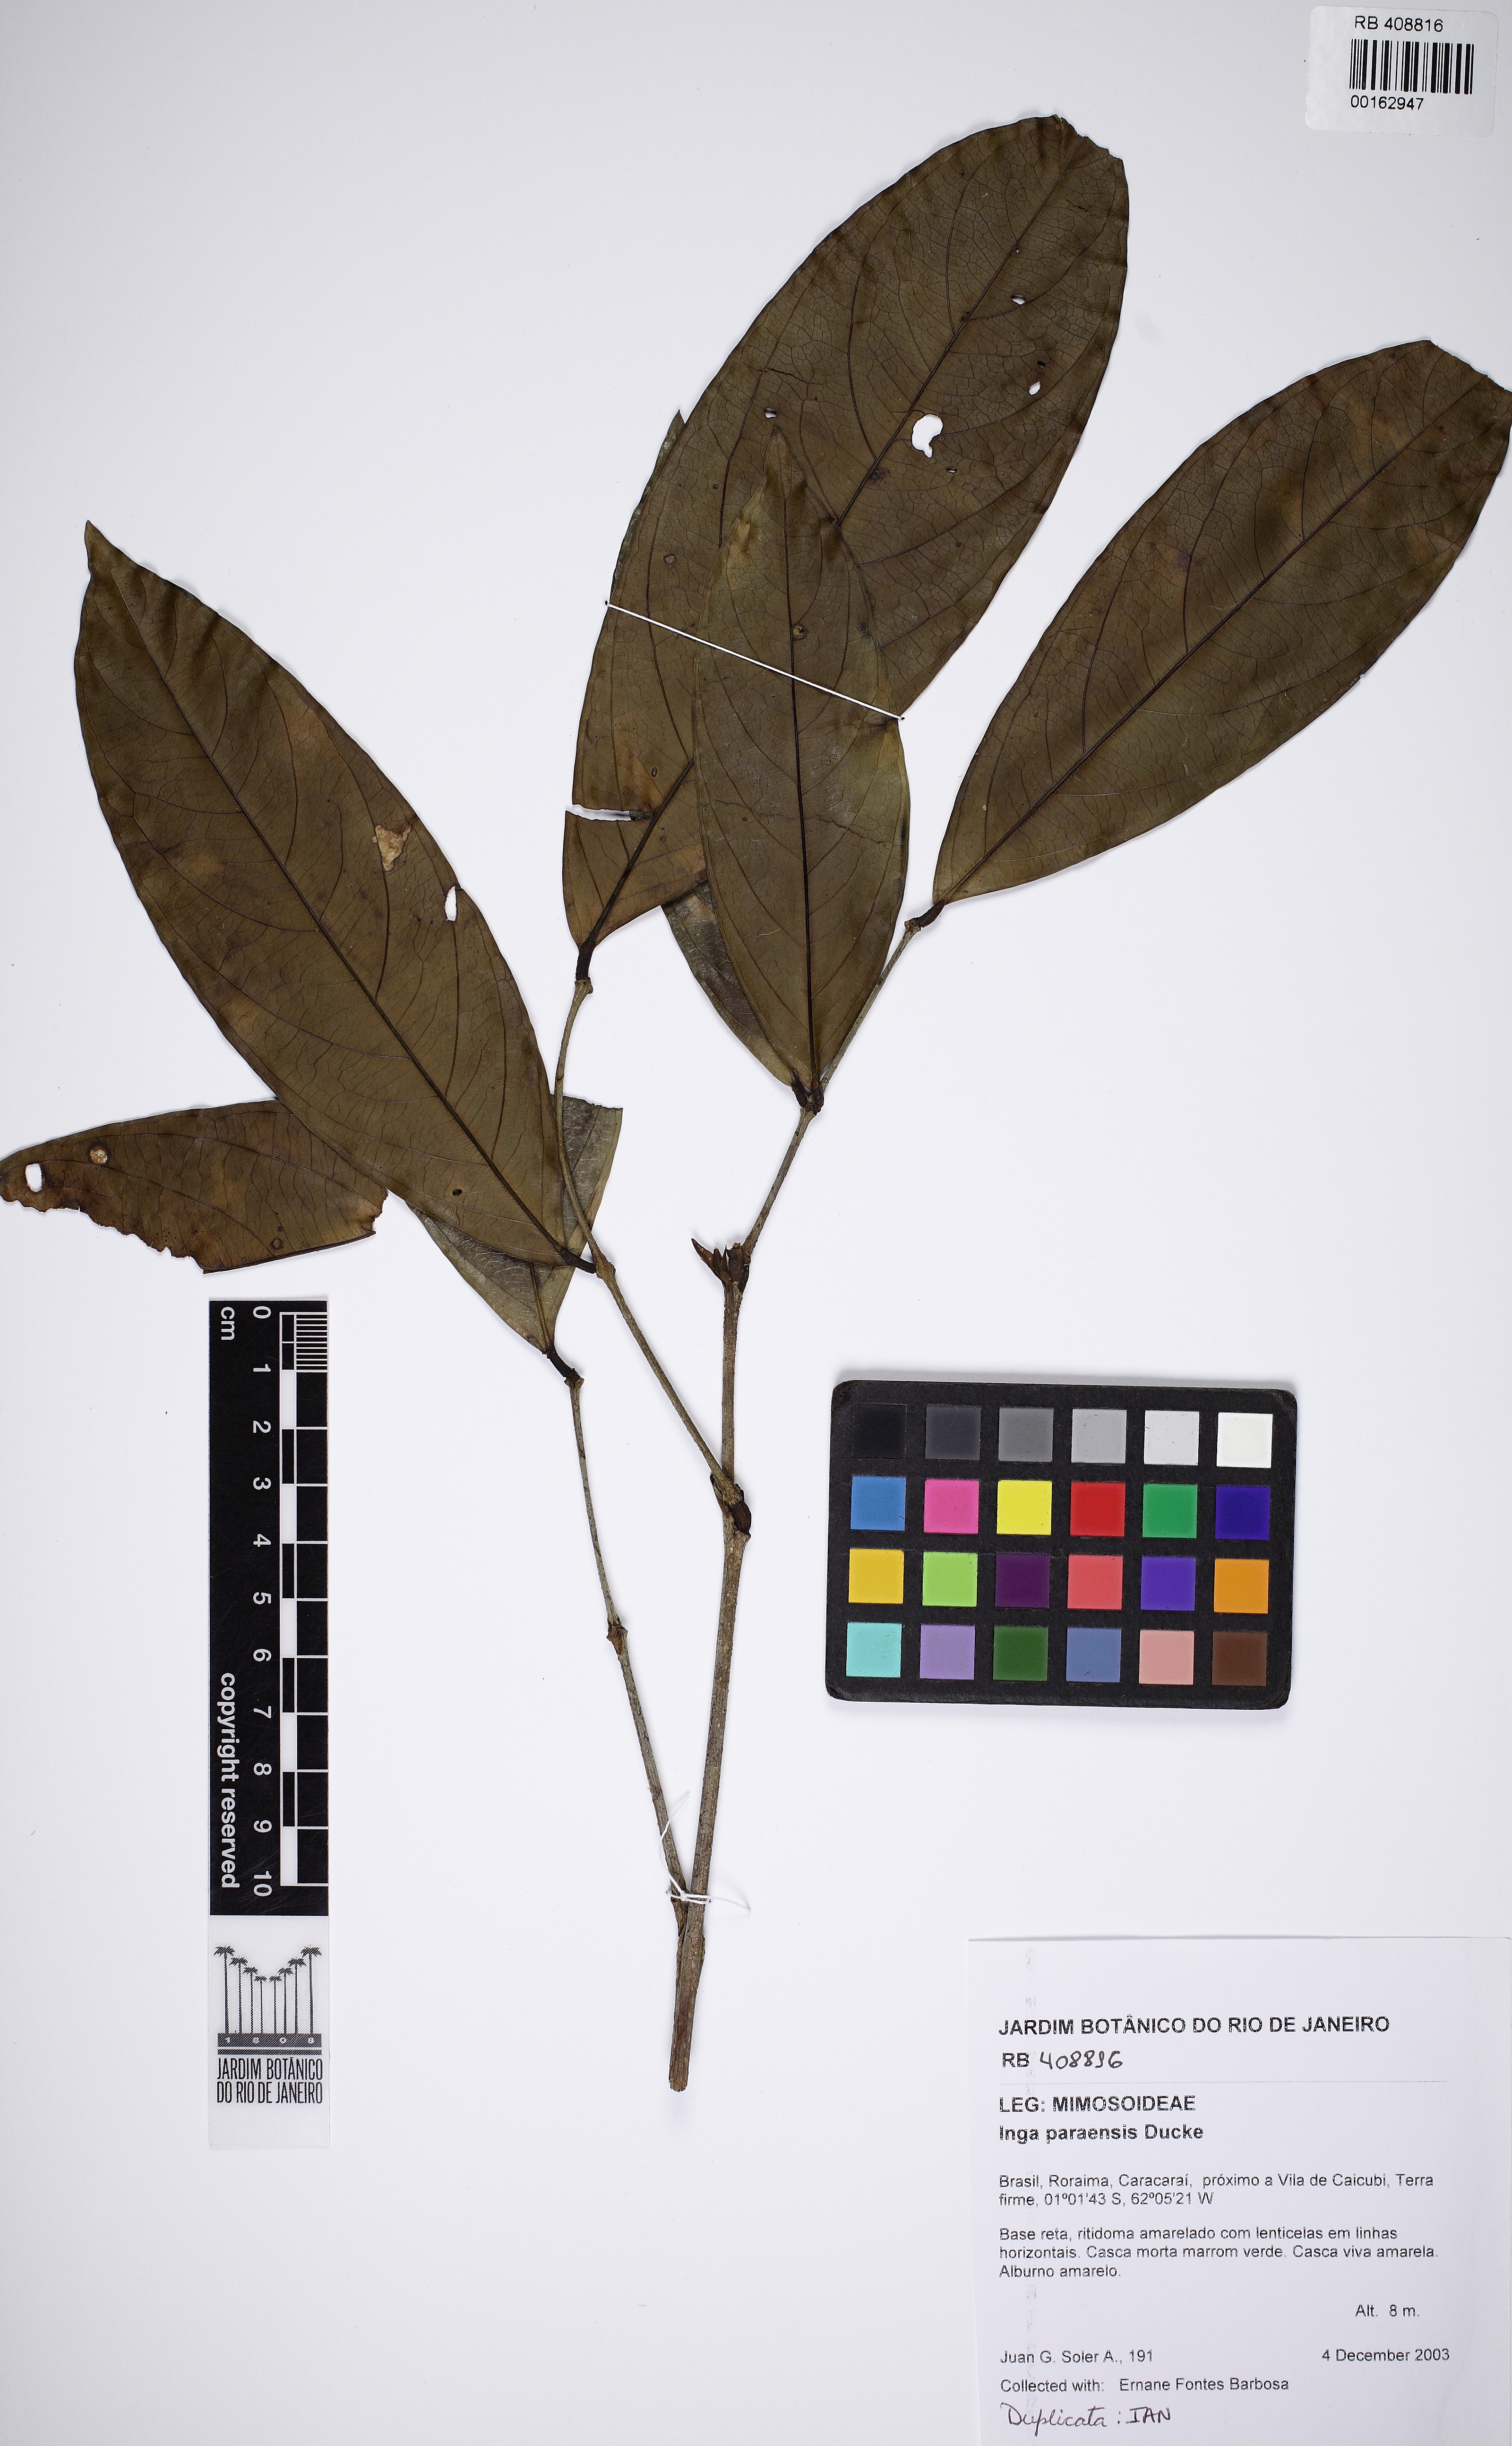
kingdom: Plantae
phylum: Tracheophyta
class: Magnoliopsida
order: Fabales
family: Fabaceae
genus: Inga
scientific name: Inga paraensis
